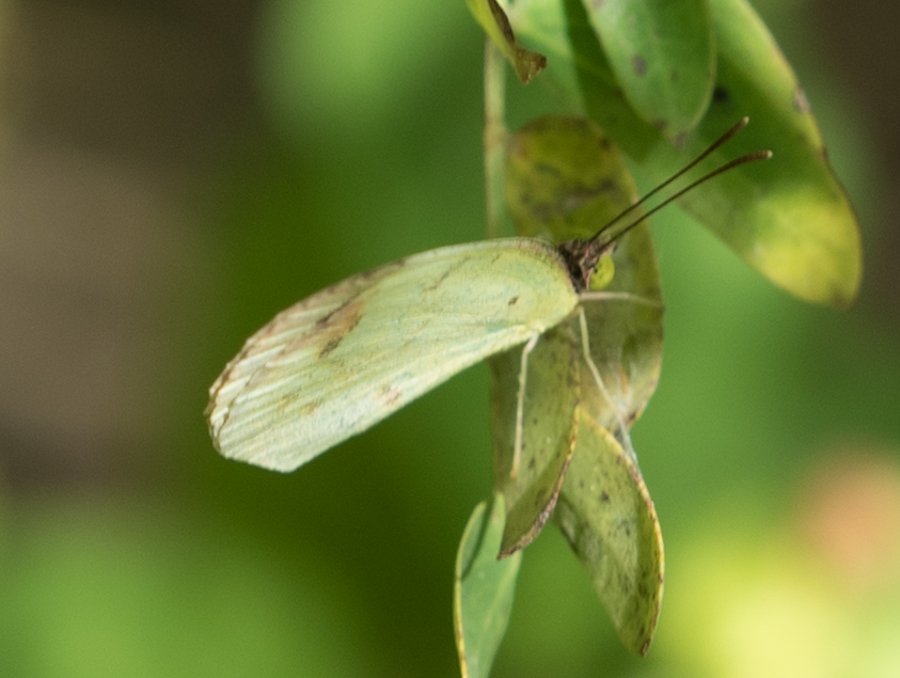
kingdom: Animalia
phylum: Arthropoda
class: Insecta
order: Lepidoptera
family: Pieridae
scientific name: Pieridae
